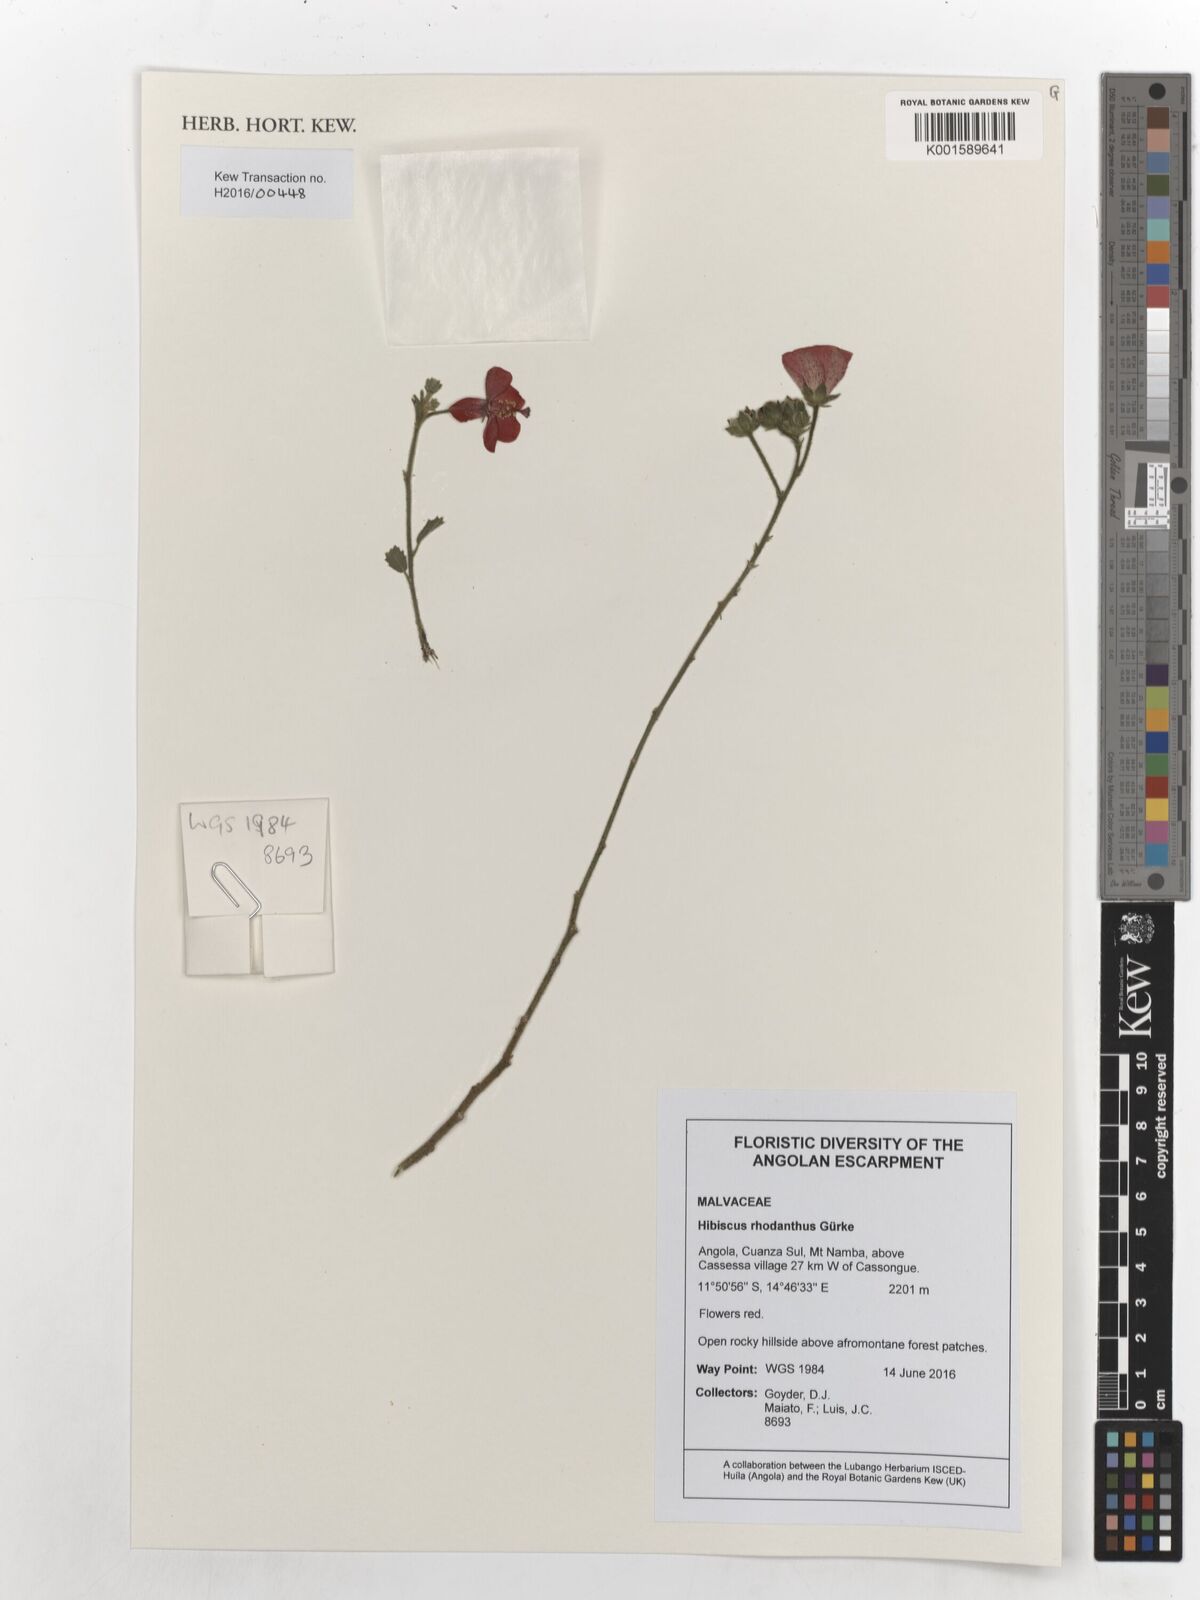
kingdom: Plantae
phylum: Tracheophyta
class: Magnoliopsida
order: Malvales
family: Malvaceae
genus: Hibiscus
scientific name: Hibiscus rhodanthus
